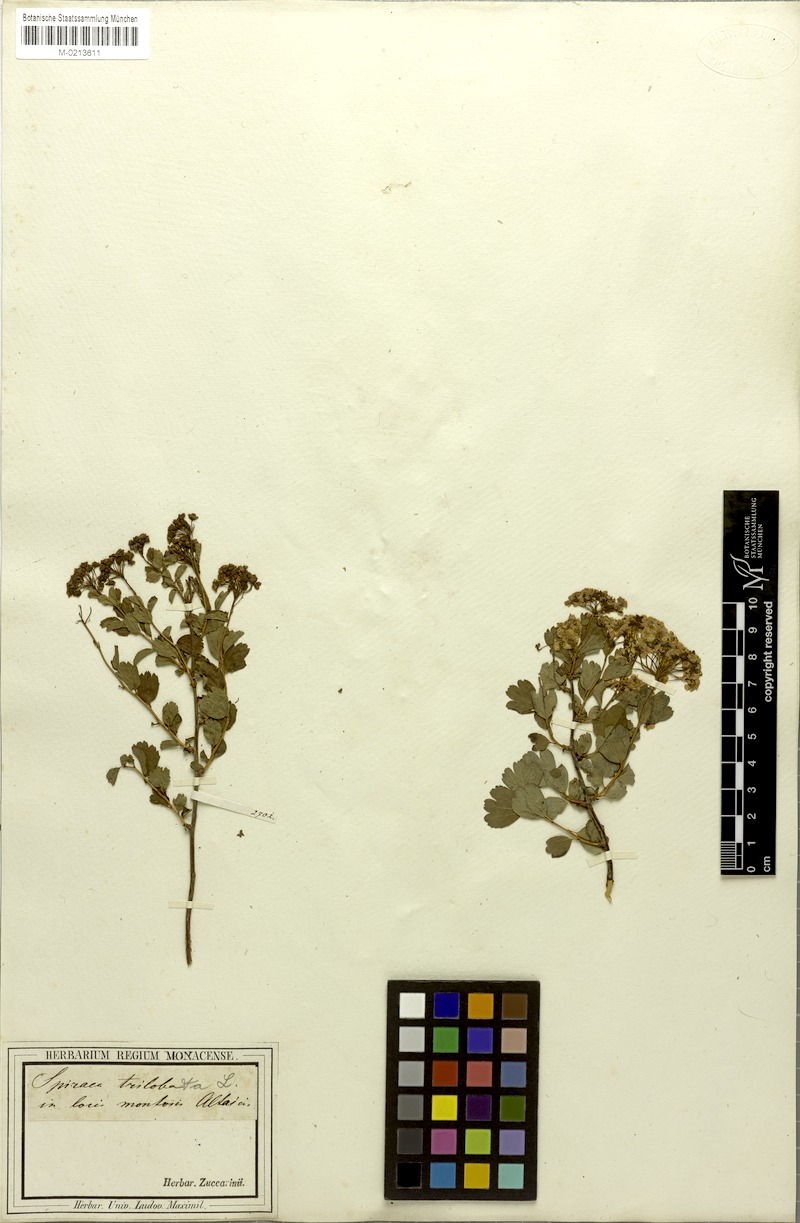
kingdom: Plantae
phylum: Tracheophyta
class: Magnoliopsida
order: Rosales
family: Rosaceae
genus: Spiraea
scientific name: Spiraea trilobata
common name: Asian meadowsweet
